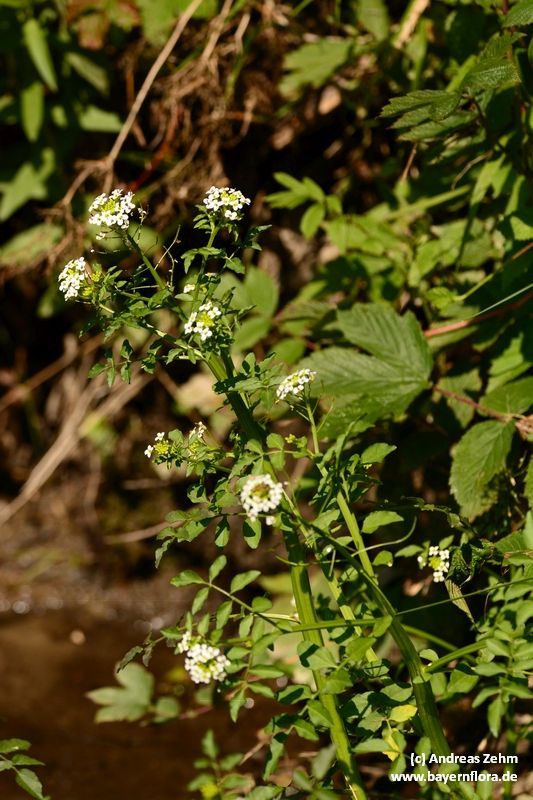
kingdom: Plantae
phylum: Tracheophyta
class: Magnoliopsida
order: Brassicales
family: Brassicaceae
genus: Nasturtium
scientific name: Nasturtium officinale
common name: Watercress
